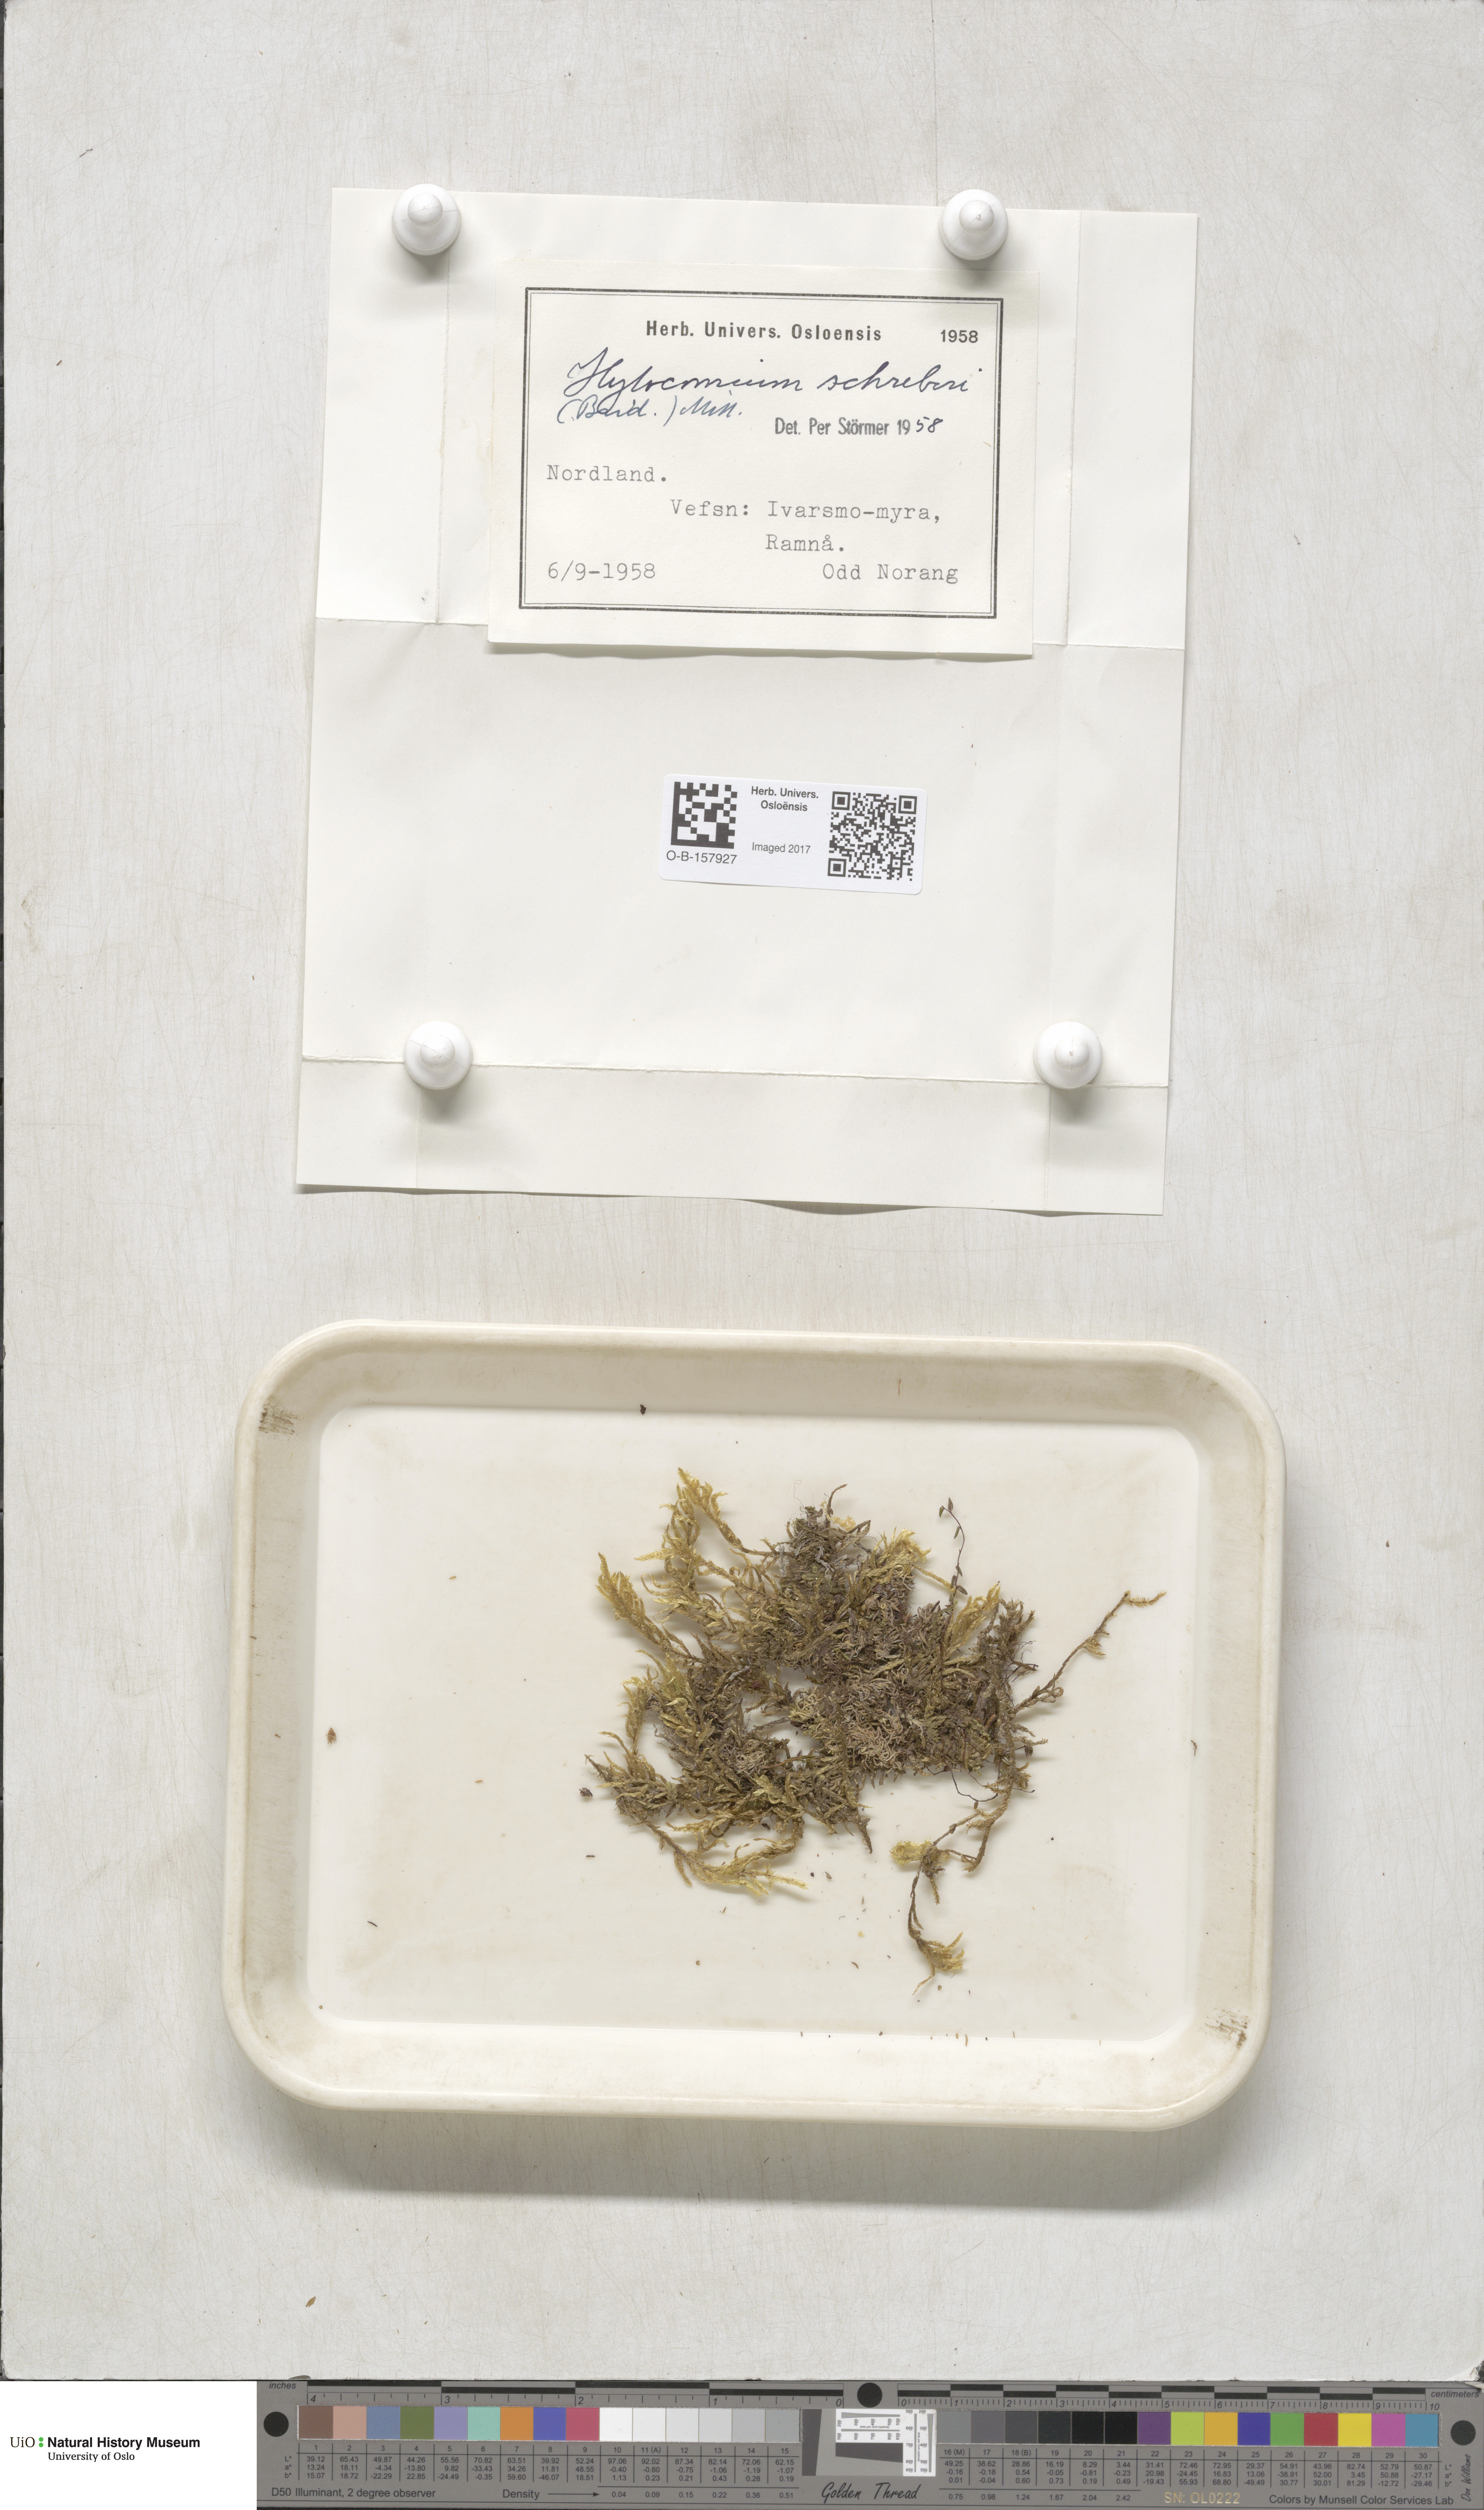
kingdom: Plantae
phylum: Bryophyta
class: Bryopsida
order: Hypnales
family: Hylocomiaceae
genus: Pleurozium
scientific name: Pleurozium schreberi
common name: Red-stemmed feather moss
